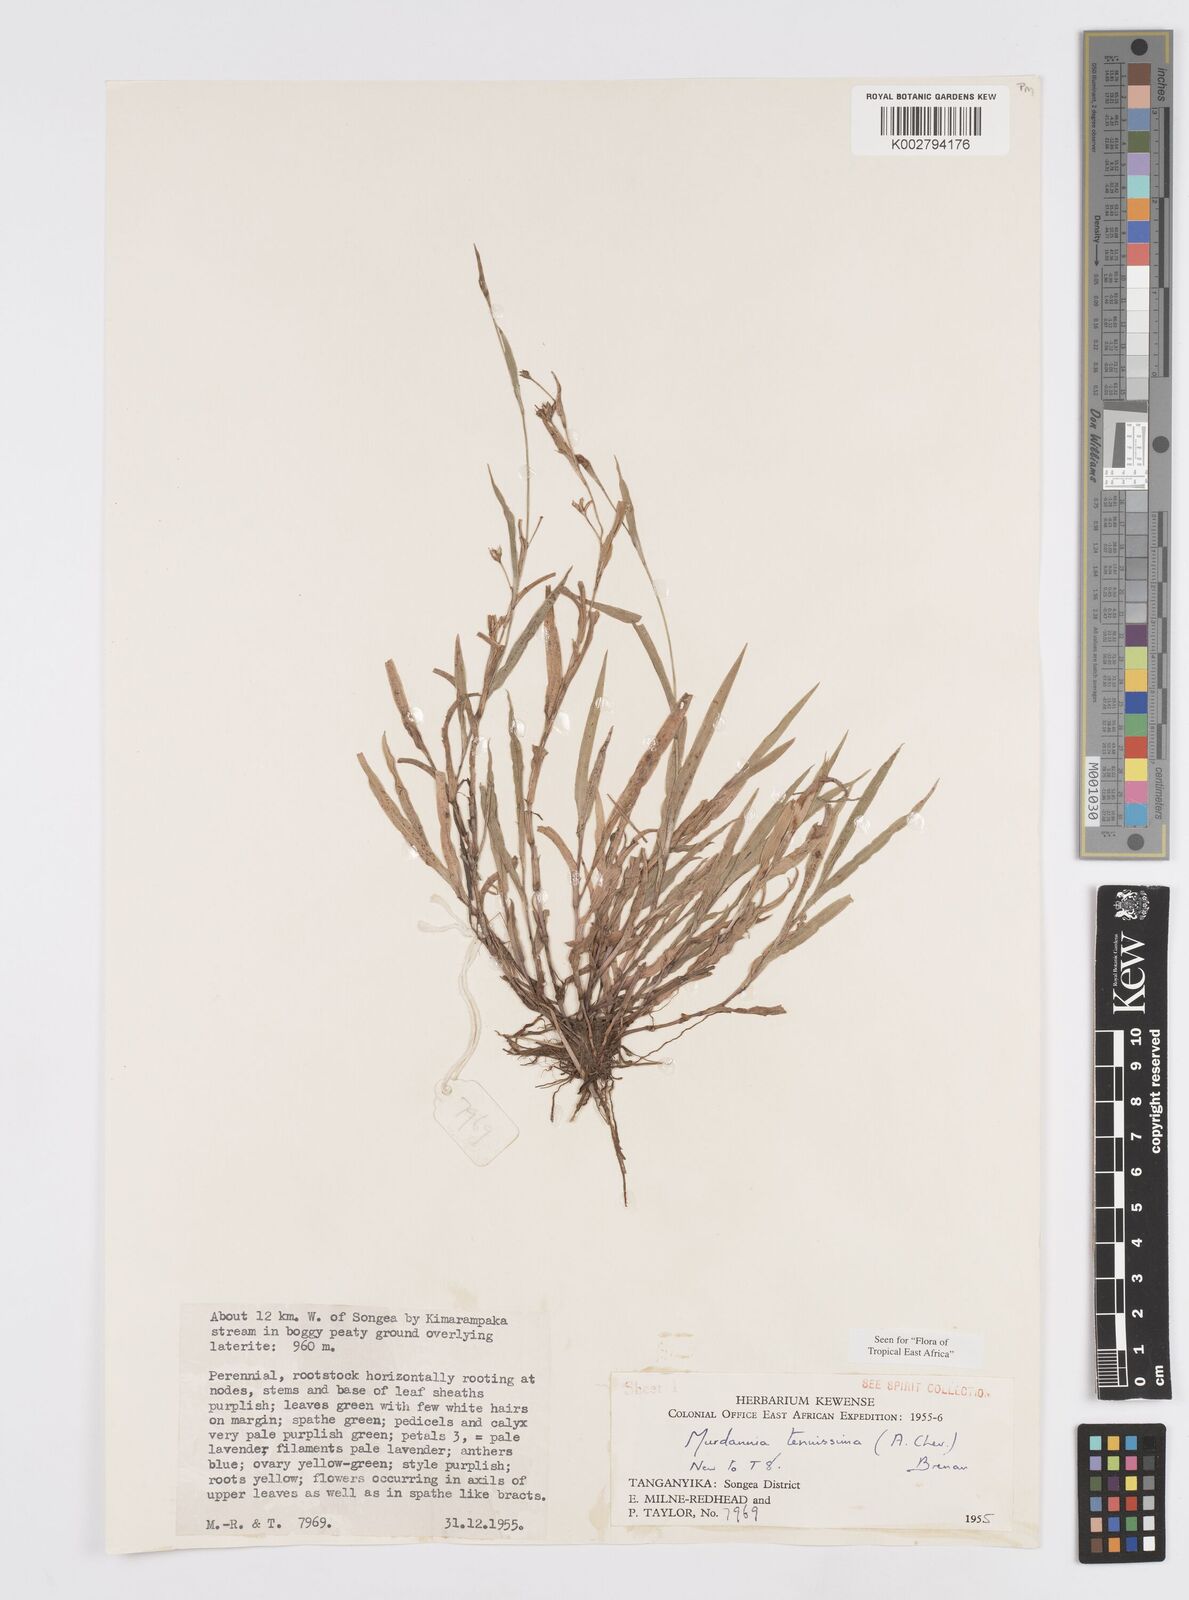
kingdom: Plantae
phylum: Tracheophyta
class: Liliopsida
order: Commelinales
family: Commelinaceae
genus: Murdannia
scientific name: Murdannia tenuissima
